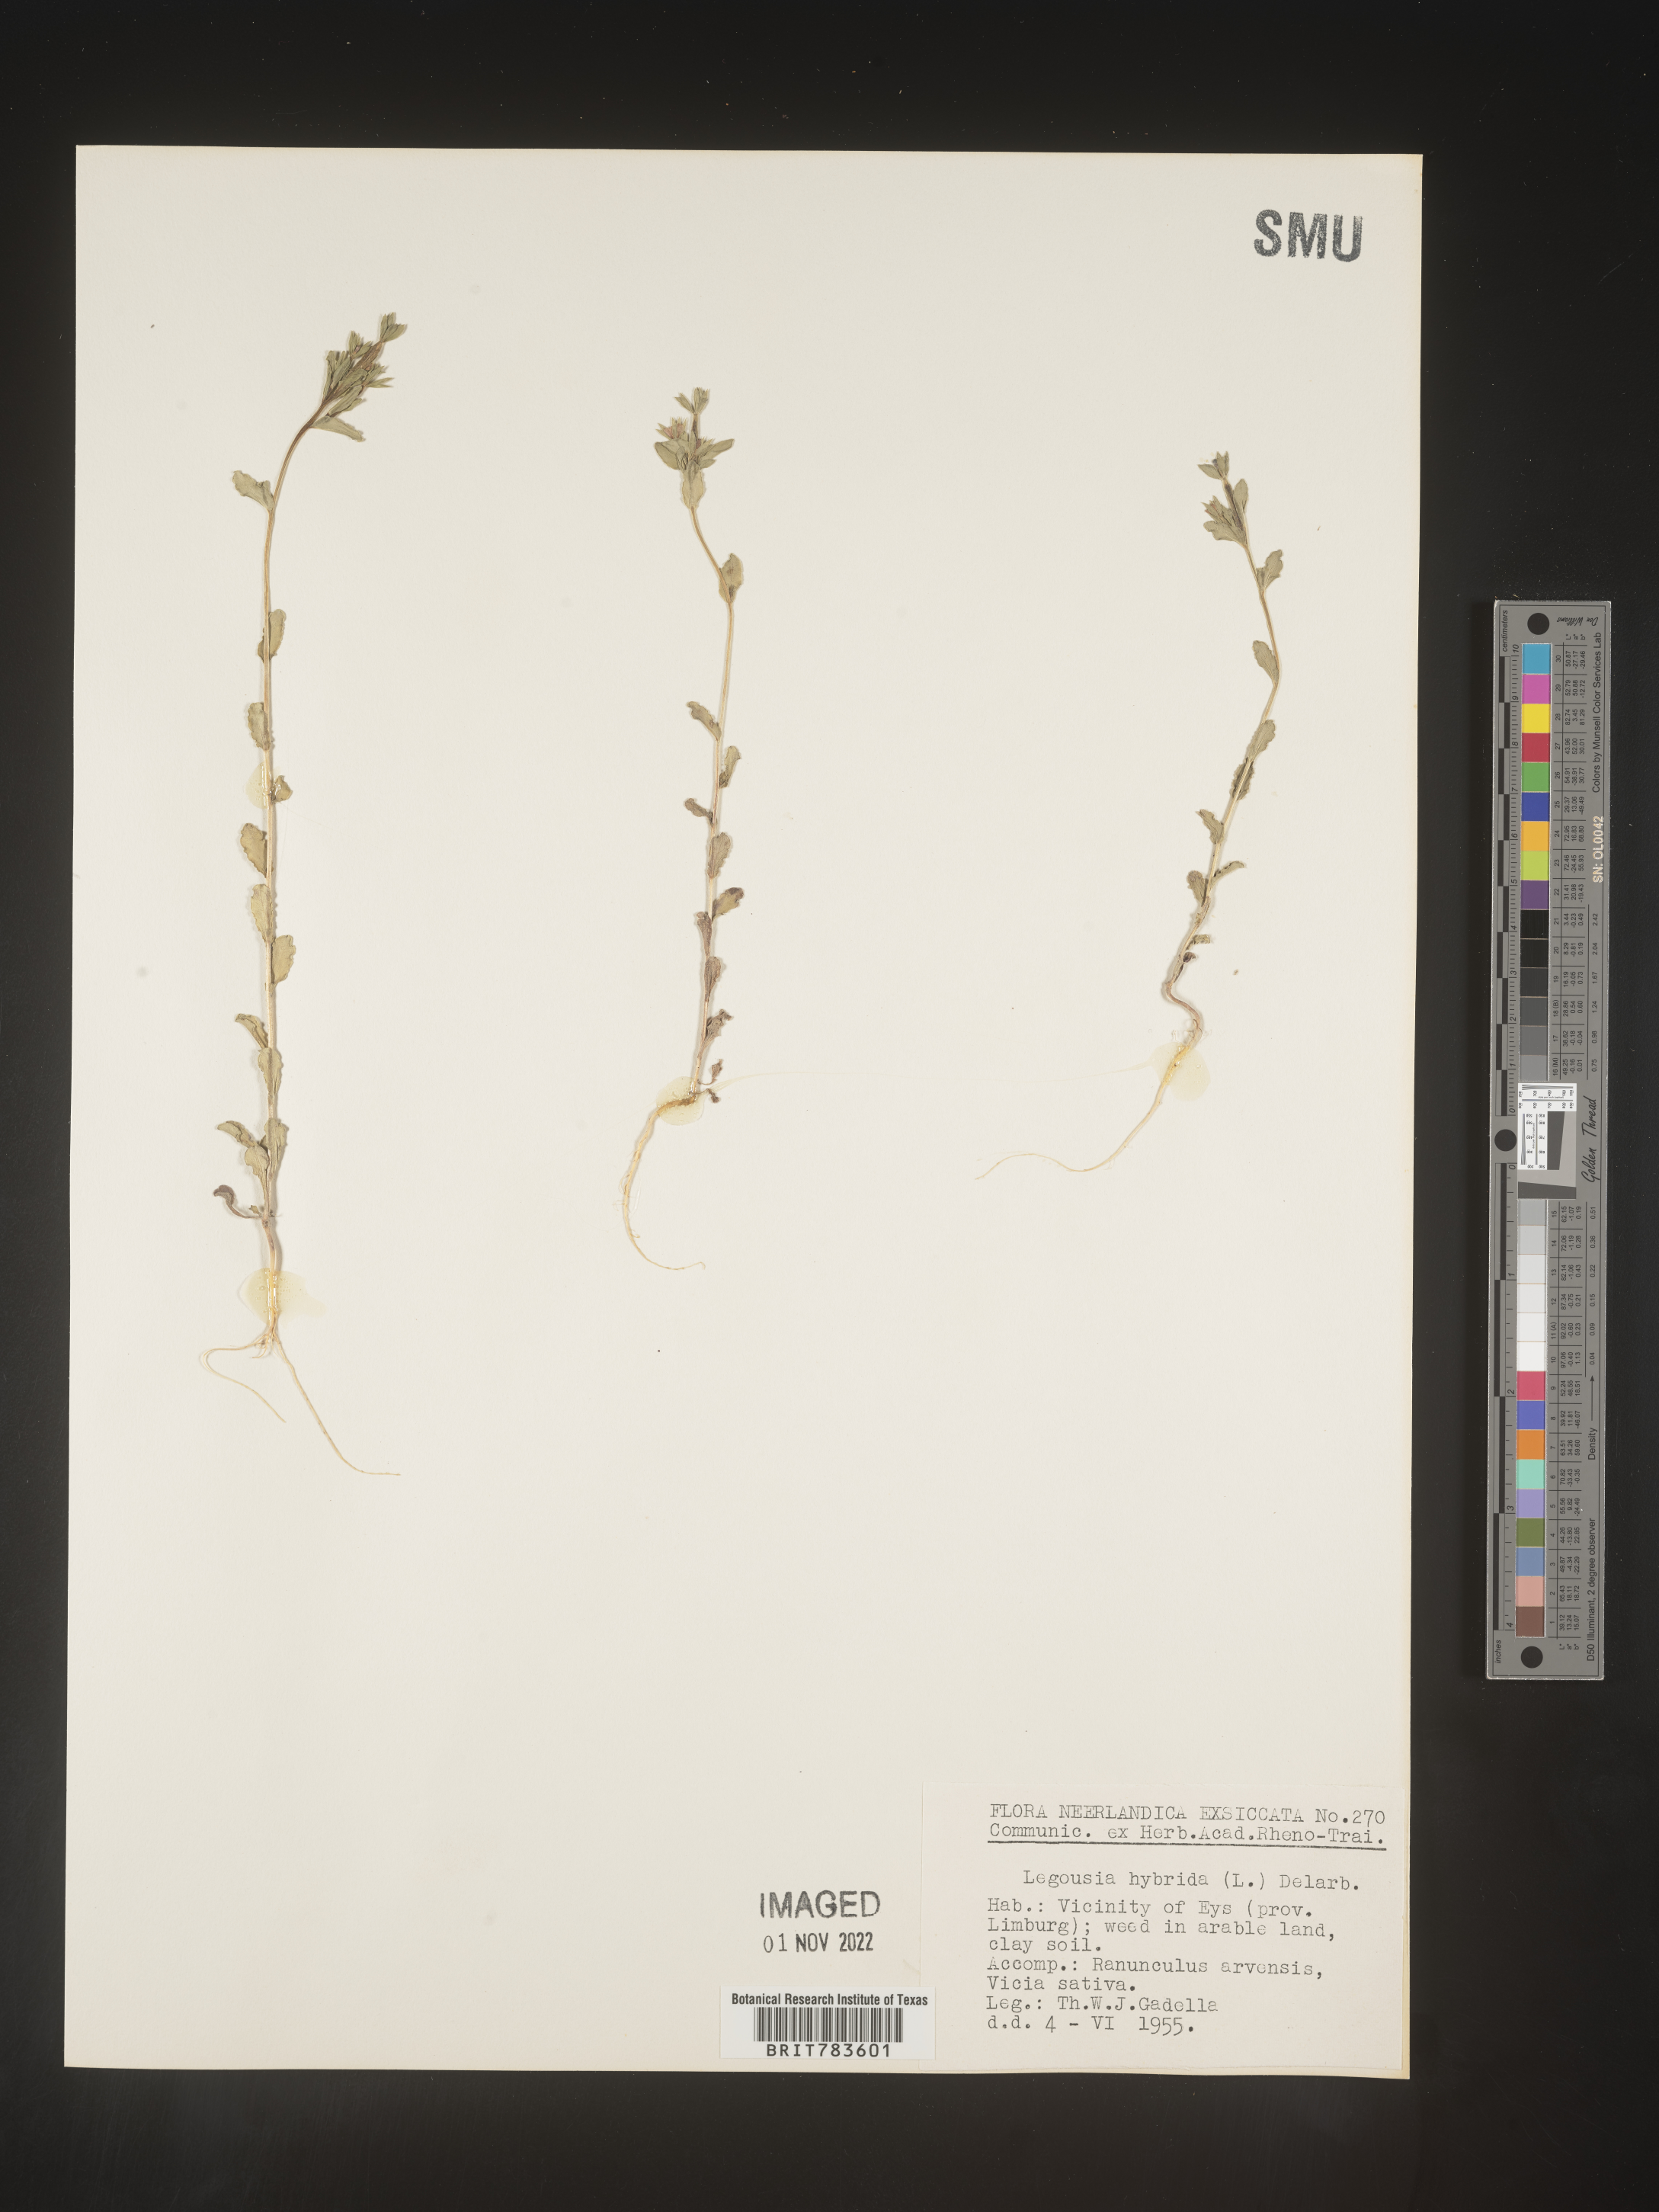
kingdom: Plantae
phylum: Tracheophyta
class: Magnoliopsida
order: Asterales
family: Campanulaceae
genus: Specularia
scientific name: Specularia
